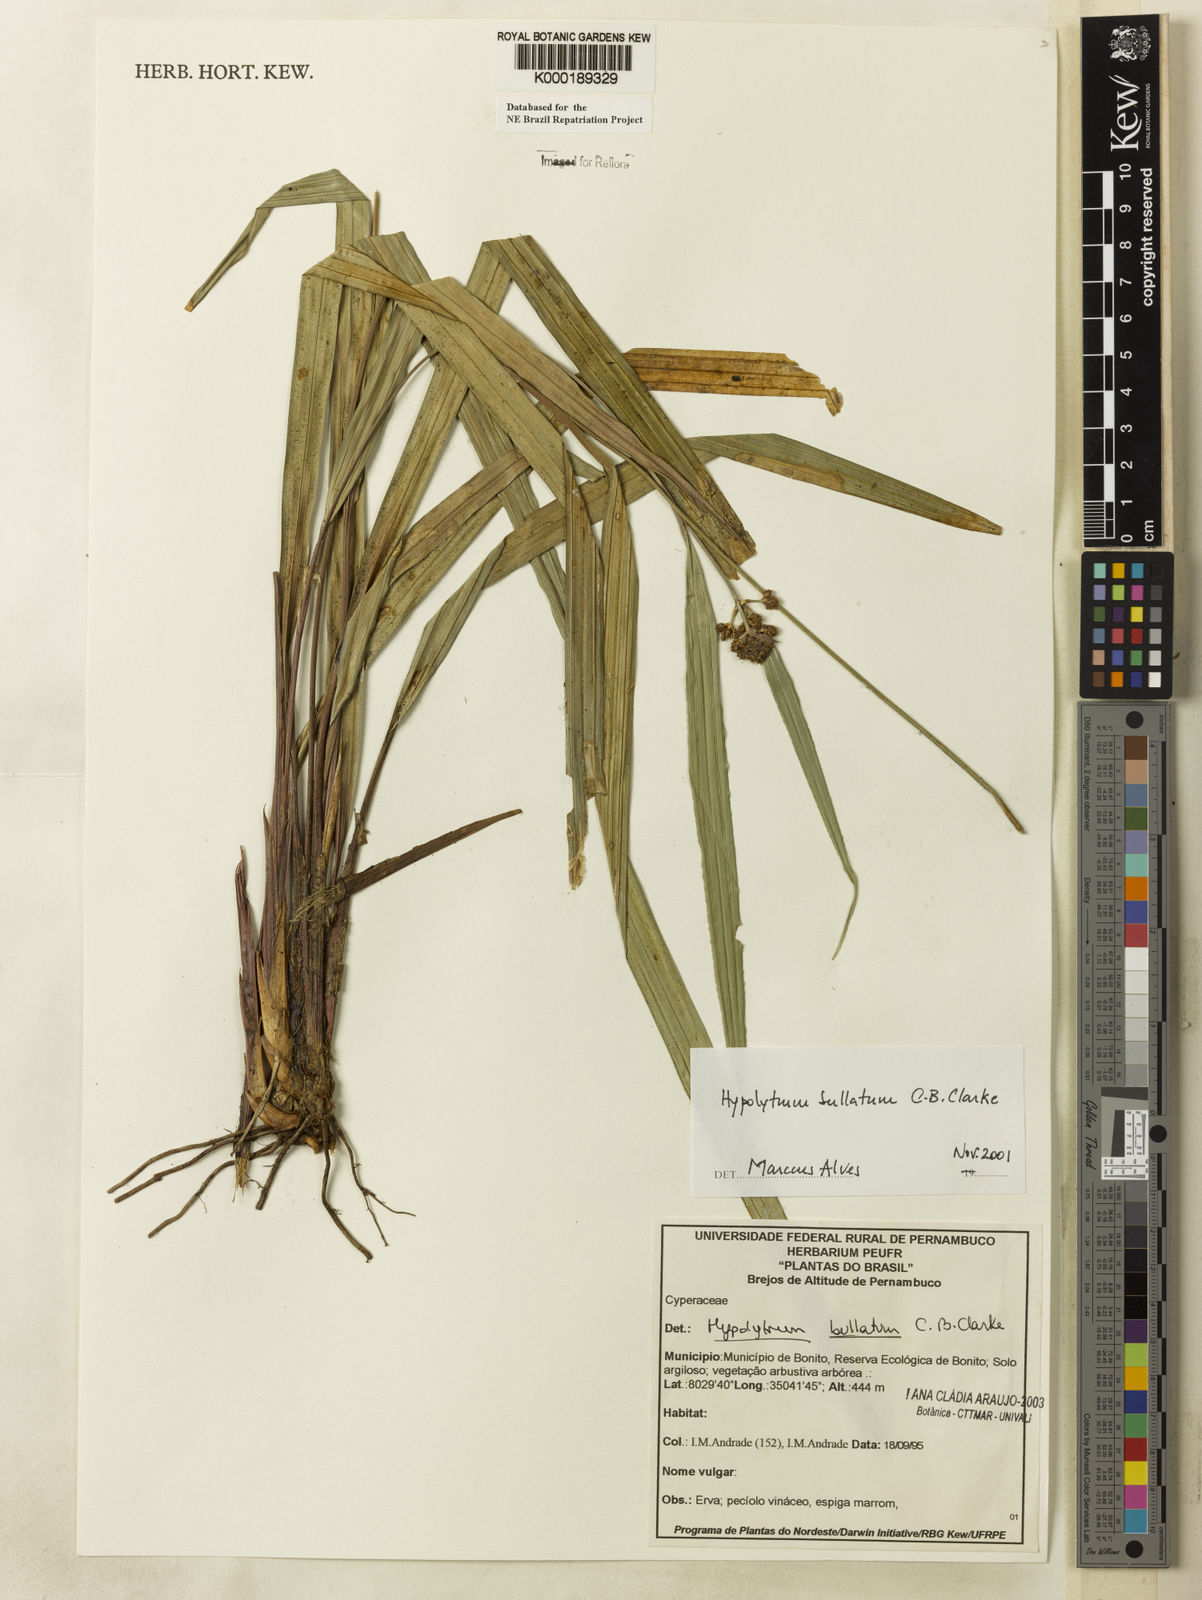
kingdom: Plantae
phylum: Tracheophyta
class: Liliopsida
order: Poales
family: Cyperaceae
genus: Hypolytrum
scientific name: Hypolytrum bullatum
